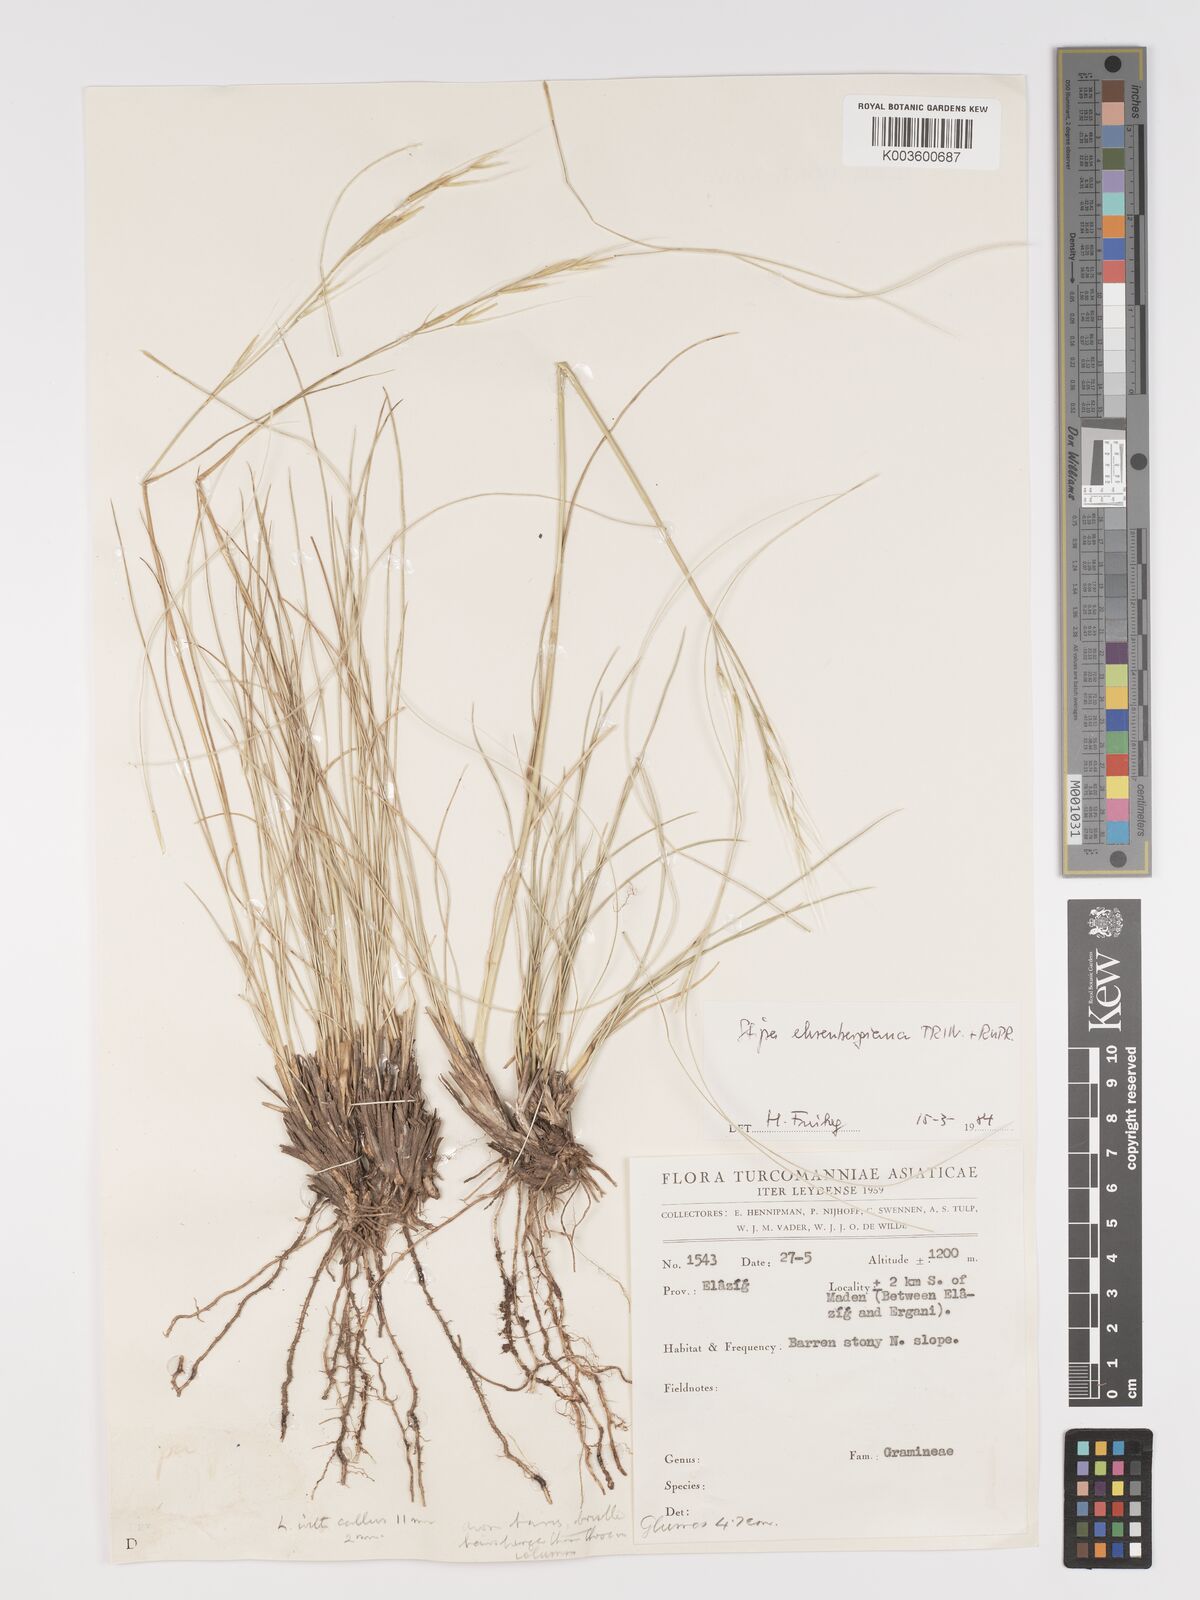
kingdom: Plantae
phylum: Tracheophyta
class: Liliopsida
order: Poales
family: Poaceae
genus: Stipa
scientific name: Stipa ehrenbergiana
